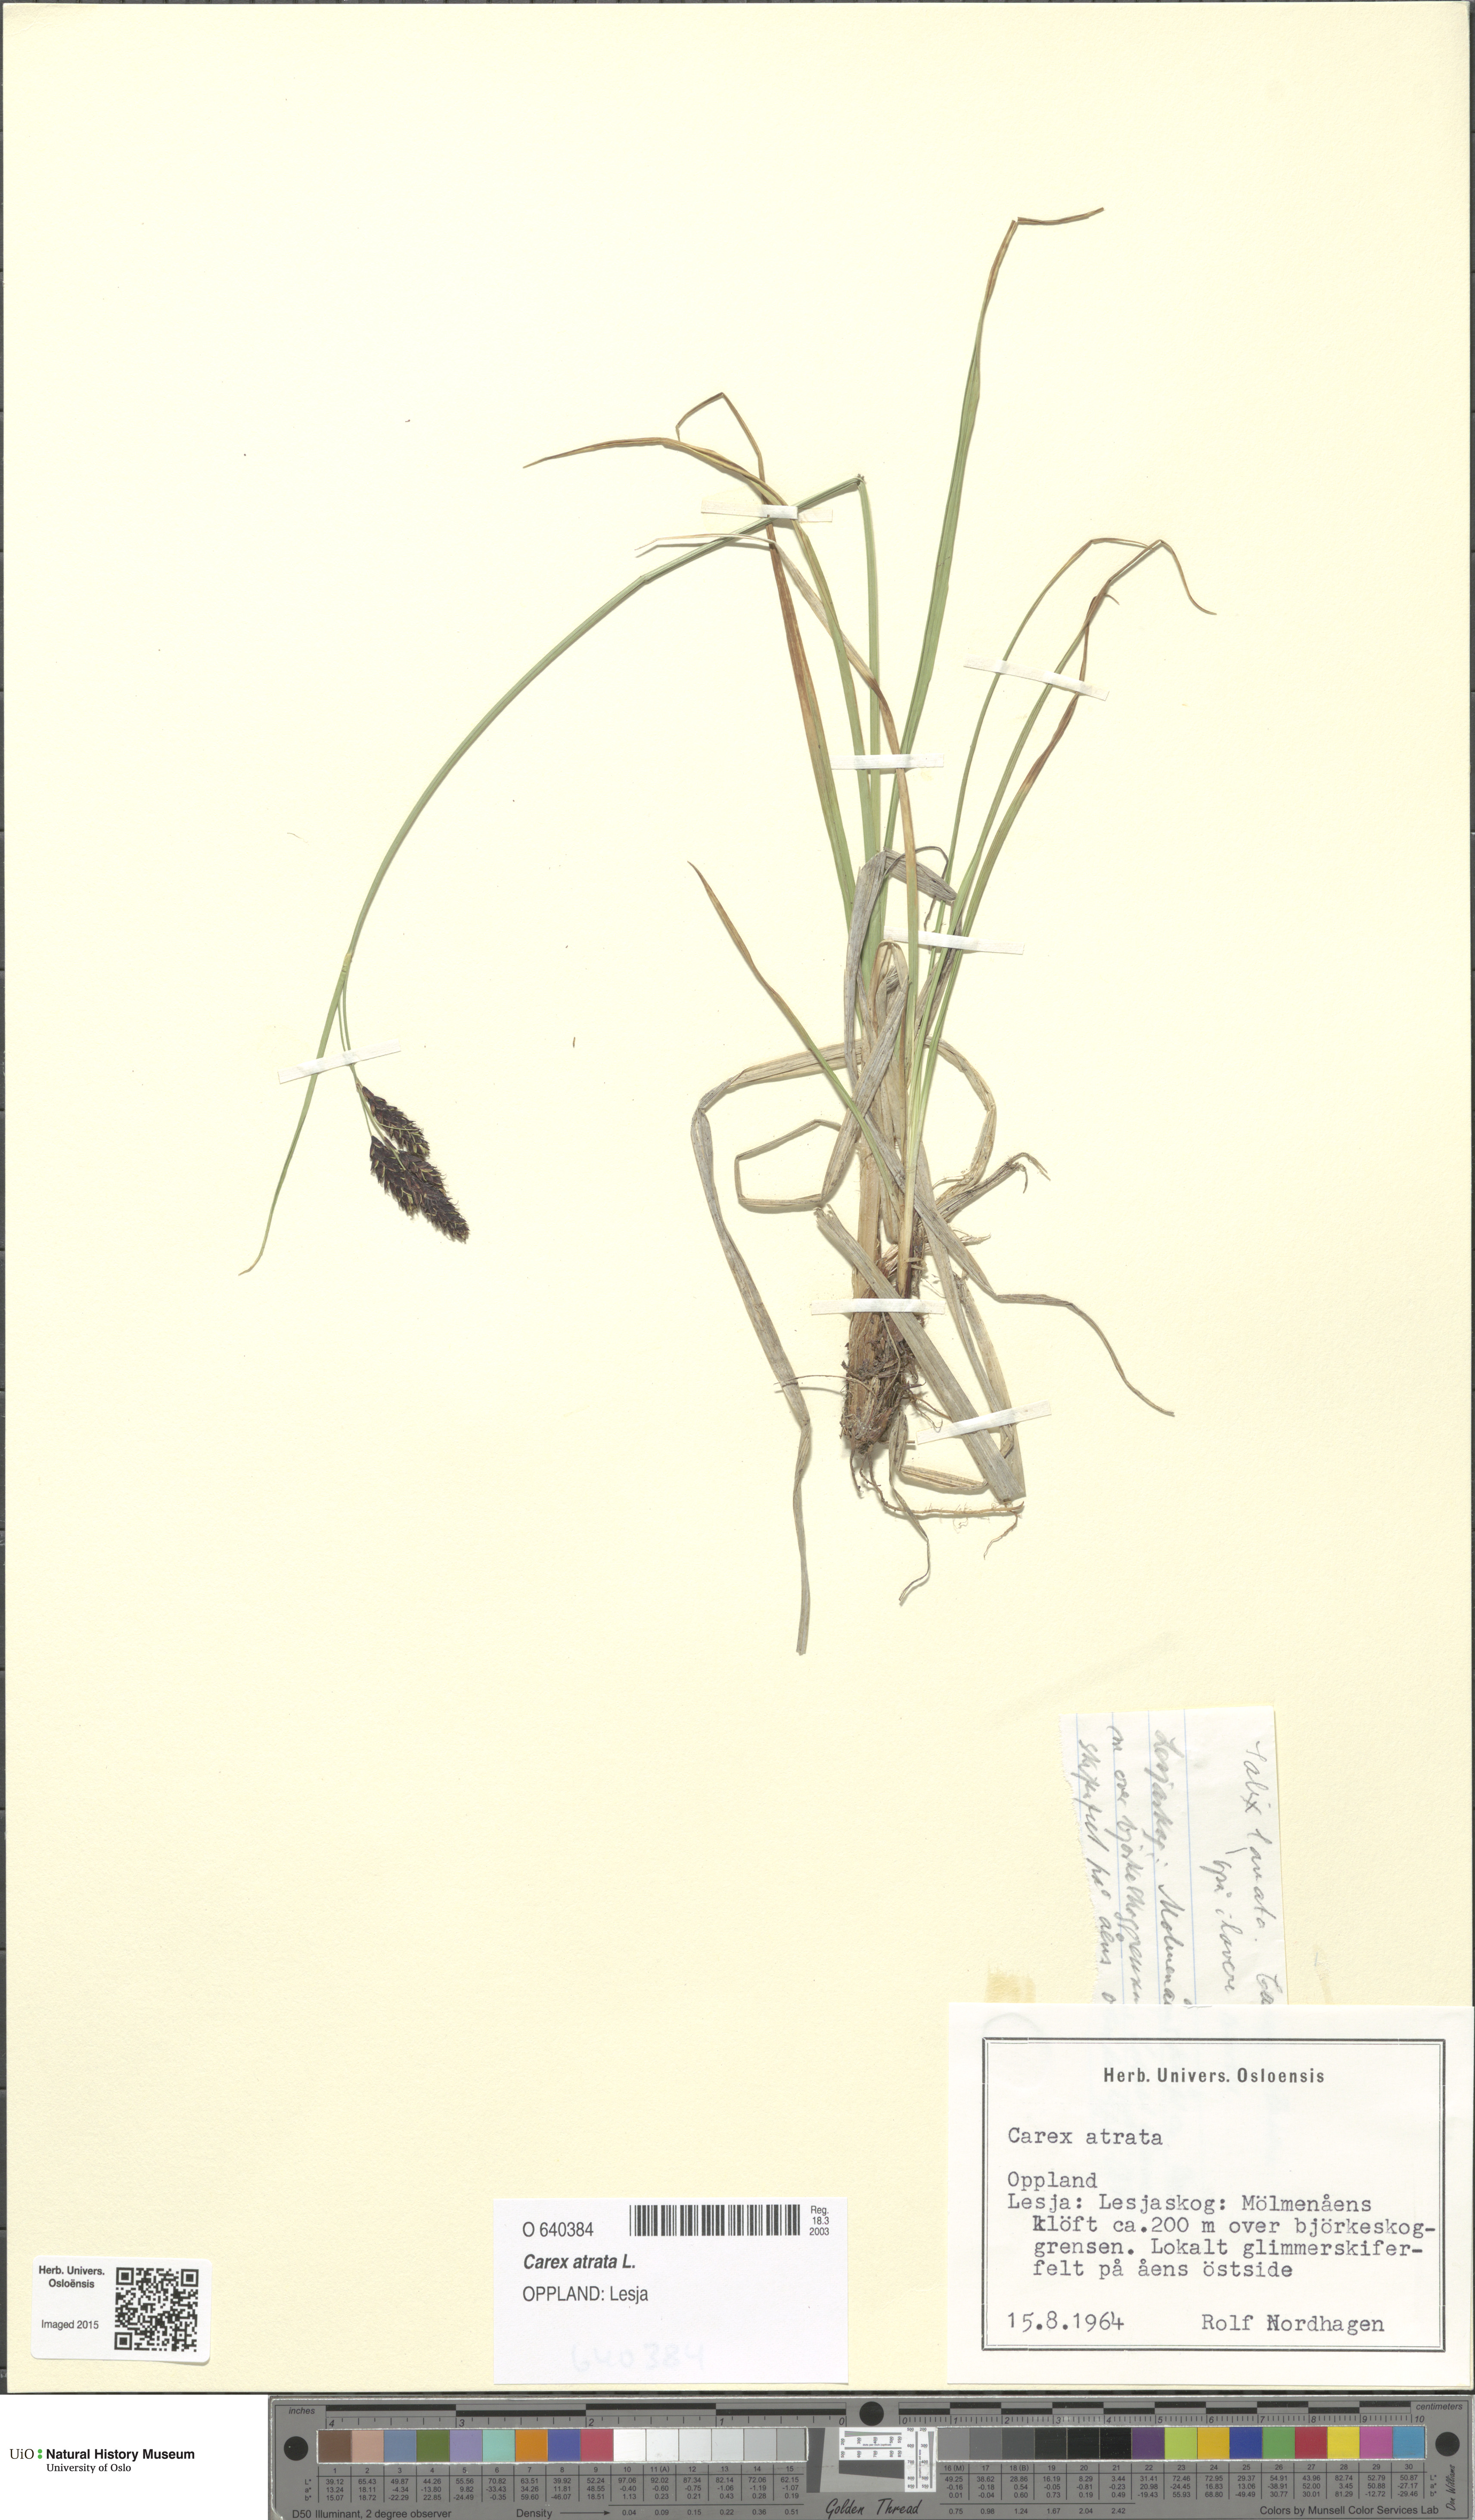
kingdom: Plantae
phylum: Tracheophyta
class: Liliopsida
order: Poales
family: Cyperaceae
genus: Carex
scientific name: Carex atrata
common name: Black alpine sedge
